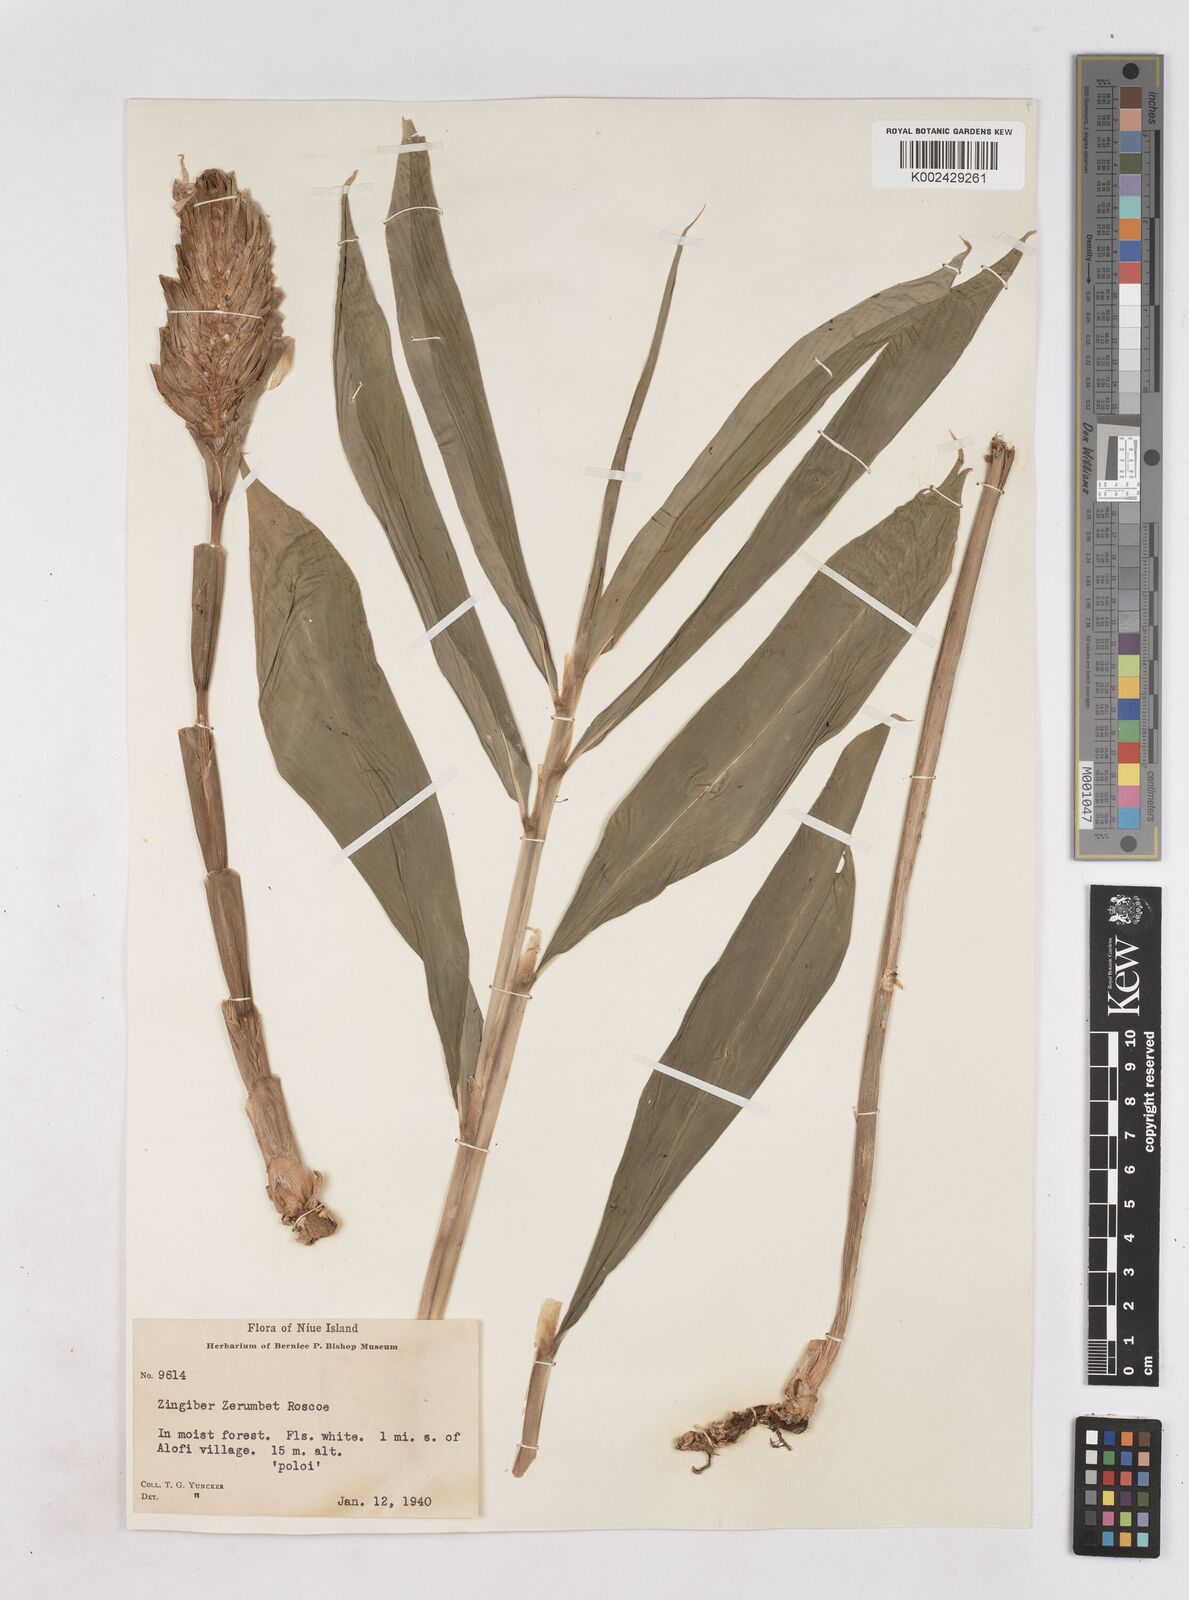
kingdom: Plantae
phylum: Tracheophyta
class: Liliopsida
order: Zingiberales
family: Zingiberaceae
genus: Zingiber
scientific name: Zingiber zerumbet
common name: Bitter ginger
